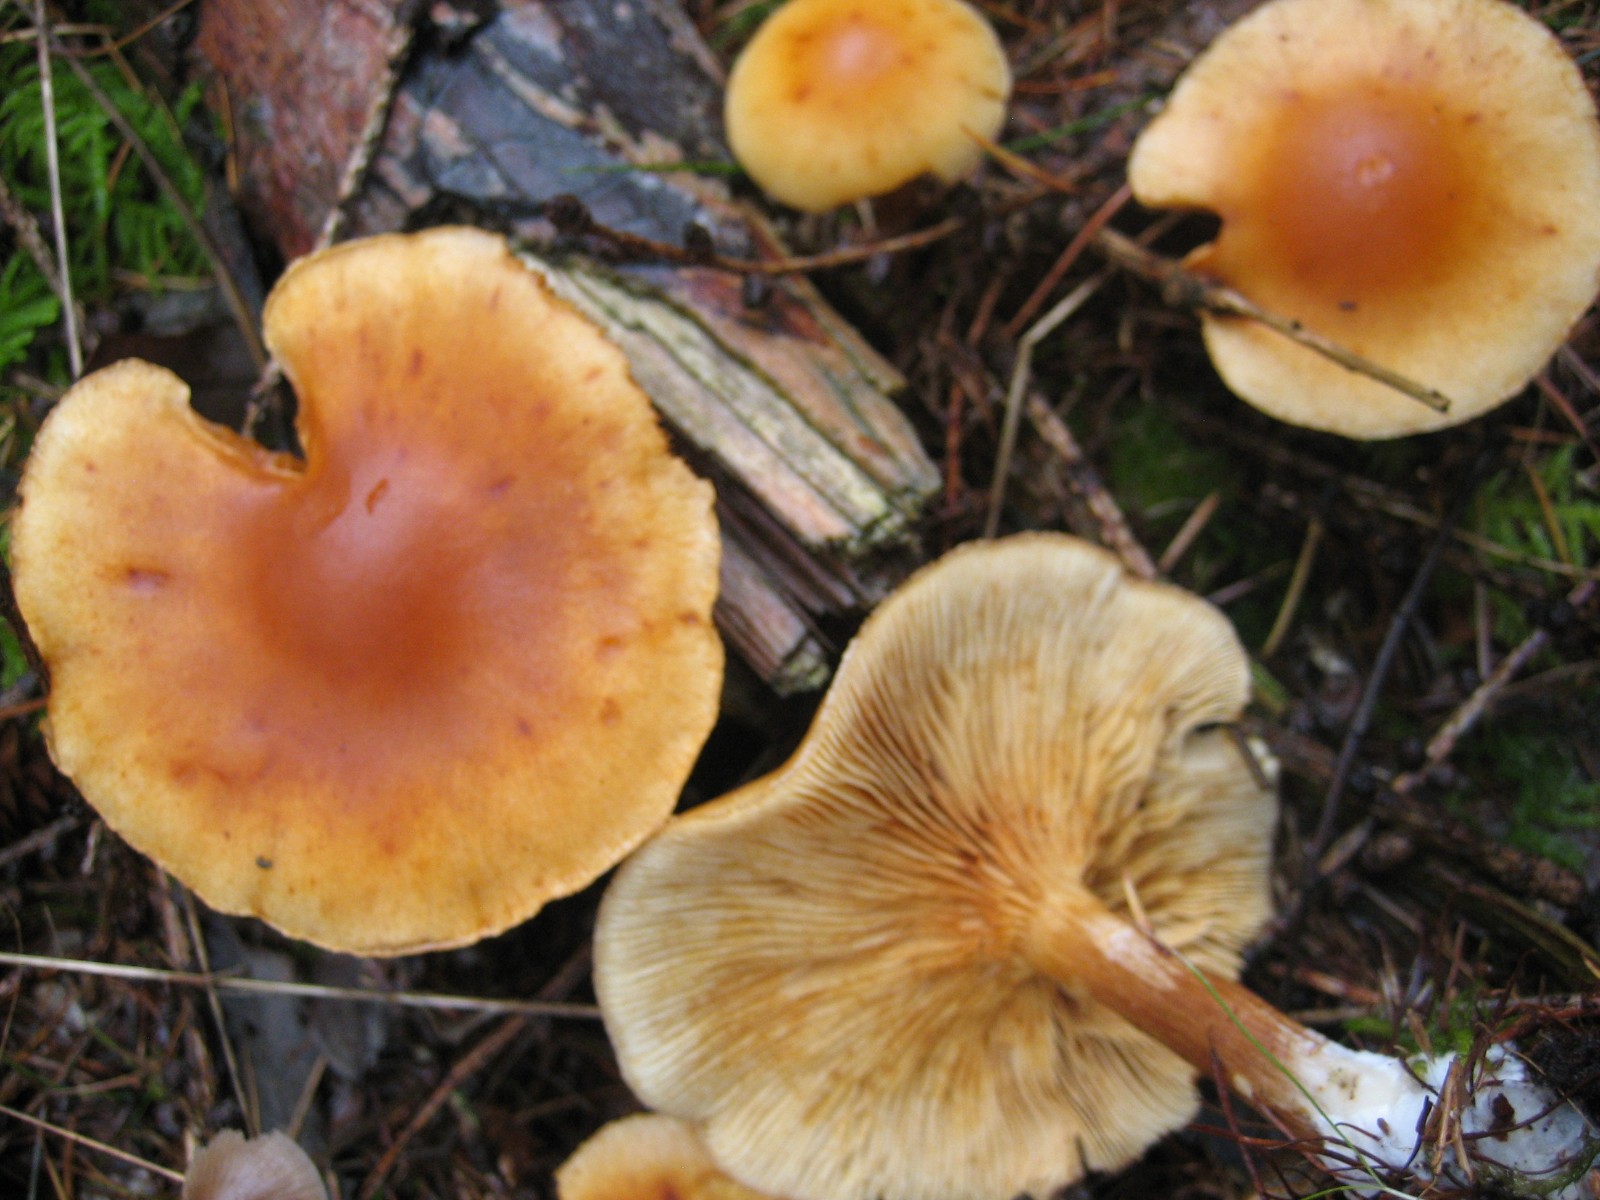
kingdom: Fungi
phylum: Basidiomycota
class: Agaricomycetes
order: Agaricales
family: Hymenogastraceae
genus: Gymnopilus
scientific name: Gymnopilus penetrans
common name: plettet flammehat
